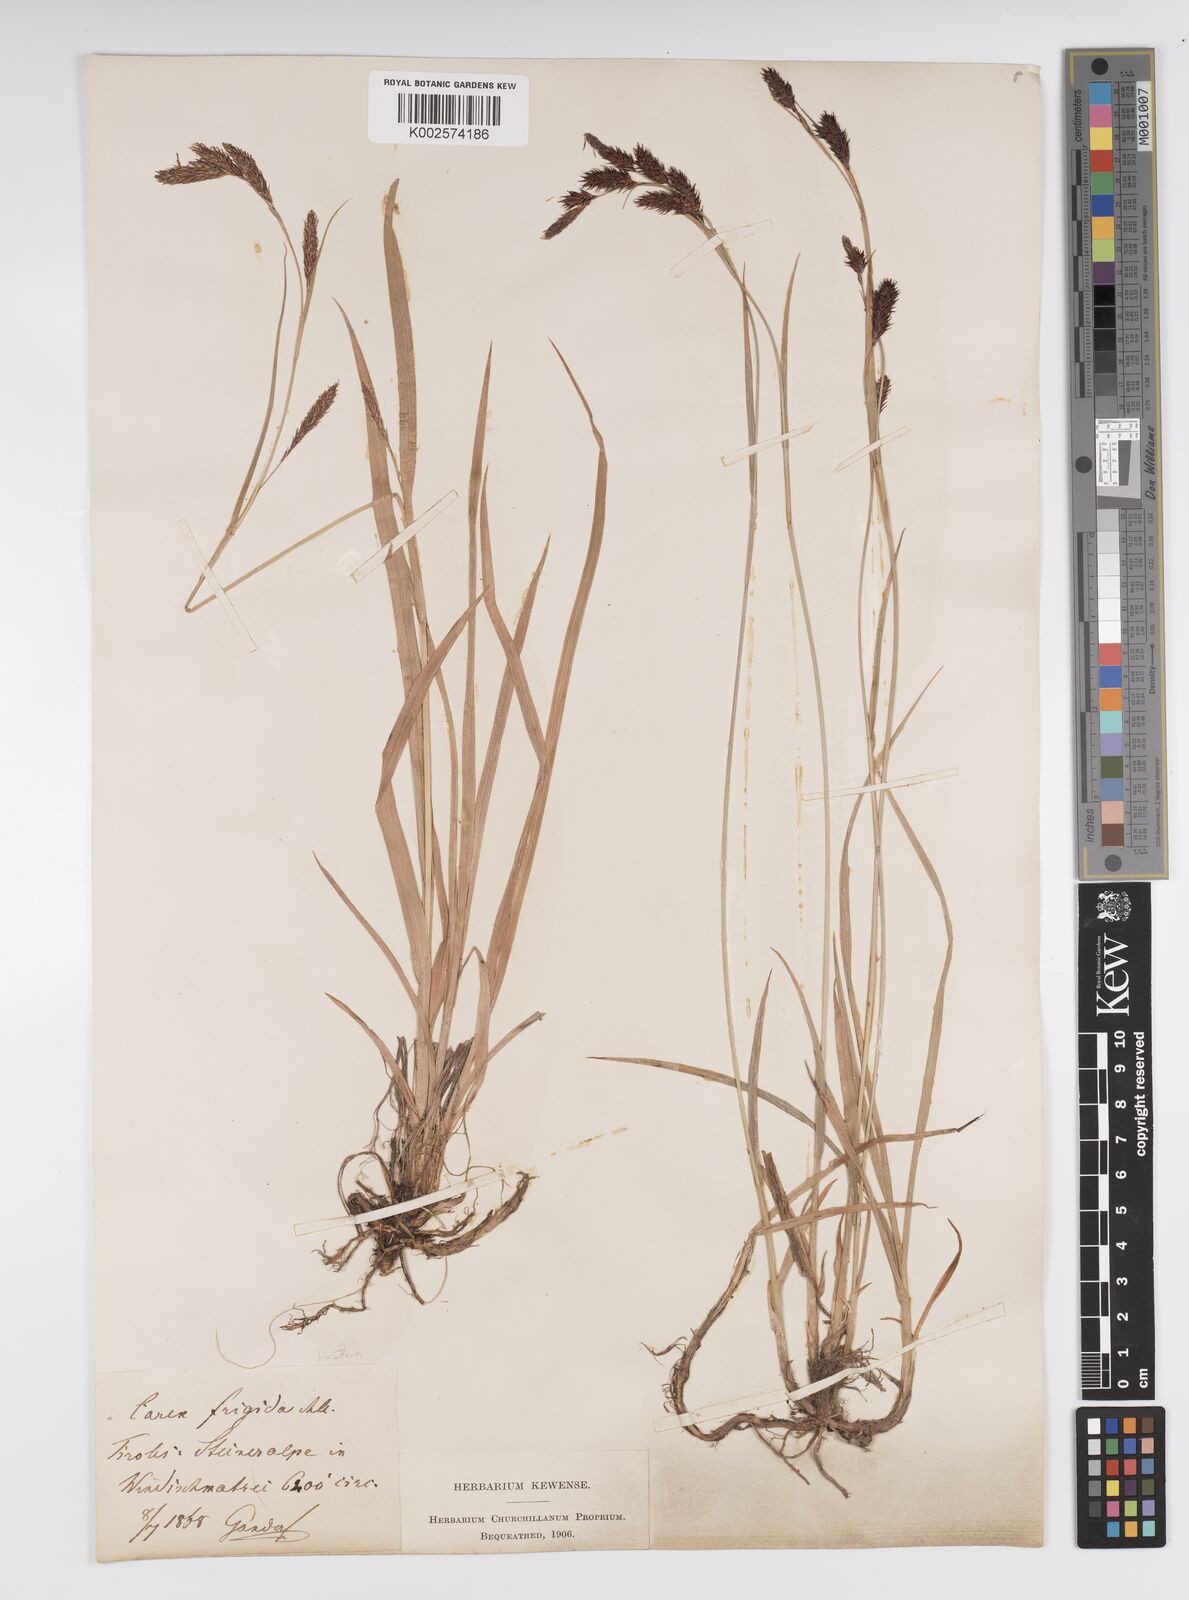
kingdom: Plantae
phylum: Tracheophyta
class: Liliopsida
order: Poales
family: Cyperaceae
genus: Carex
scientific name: Carex frigida
